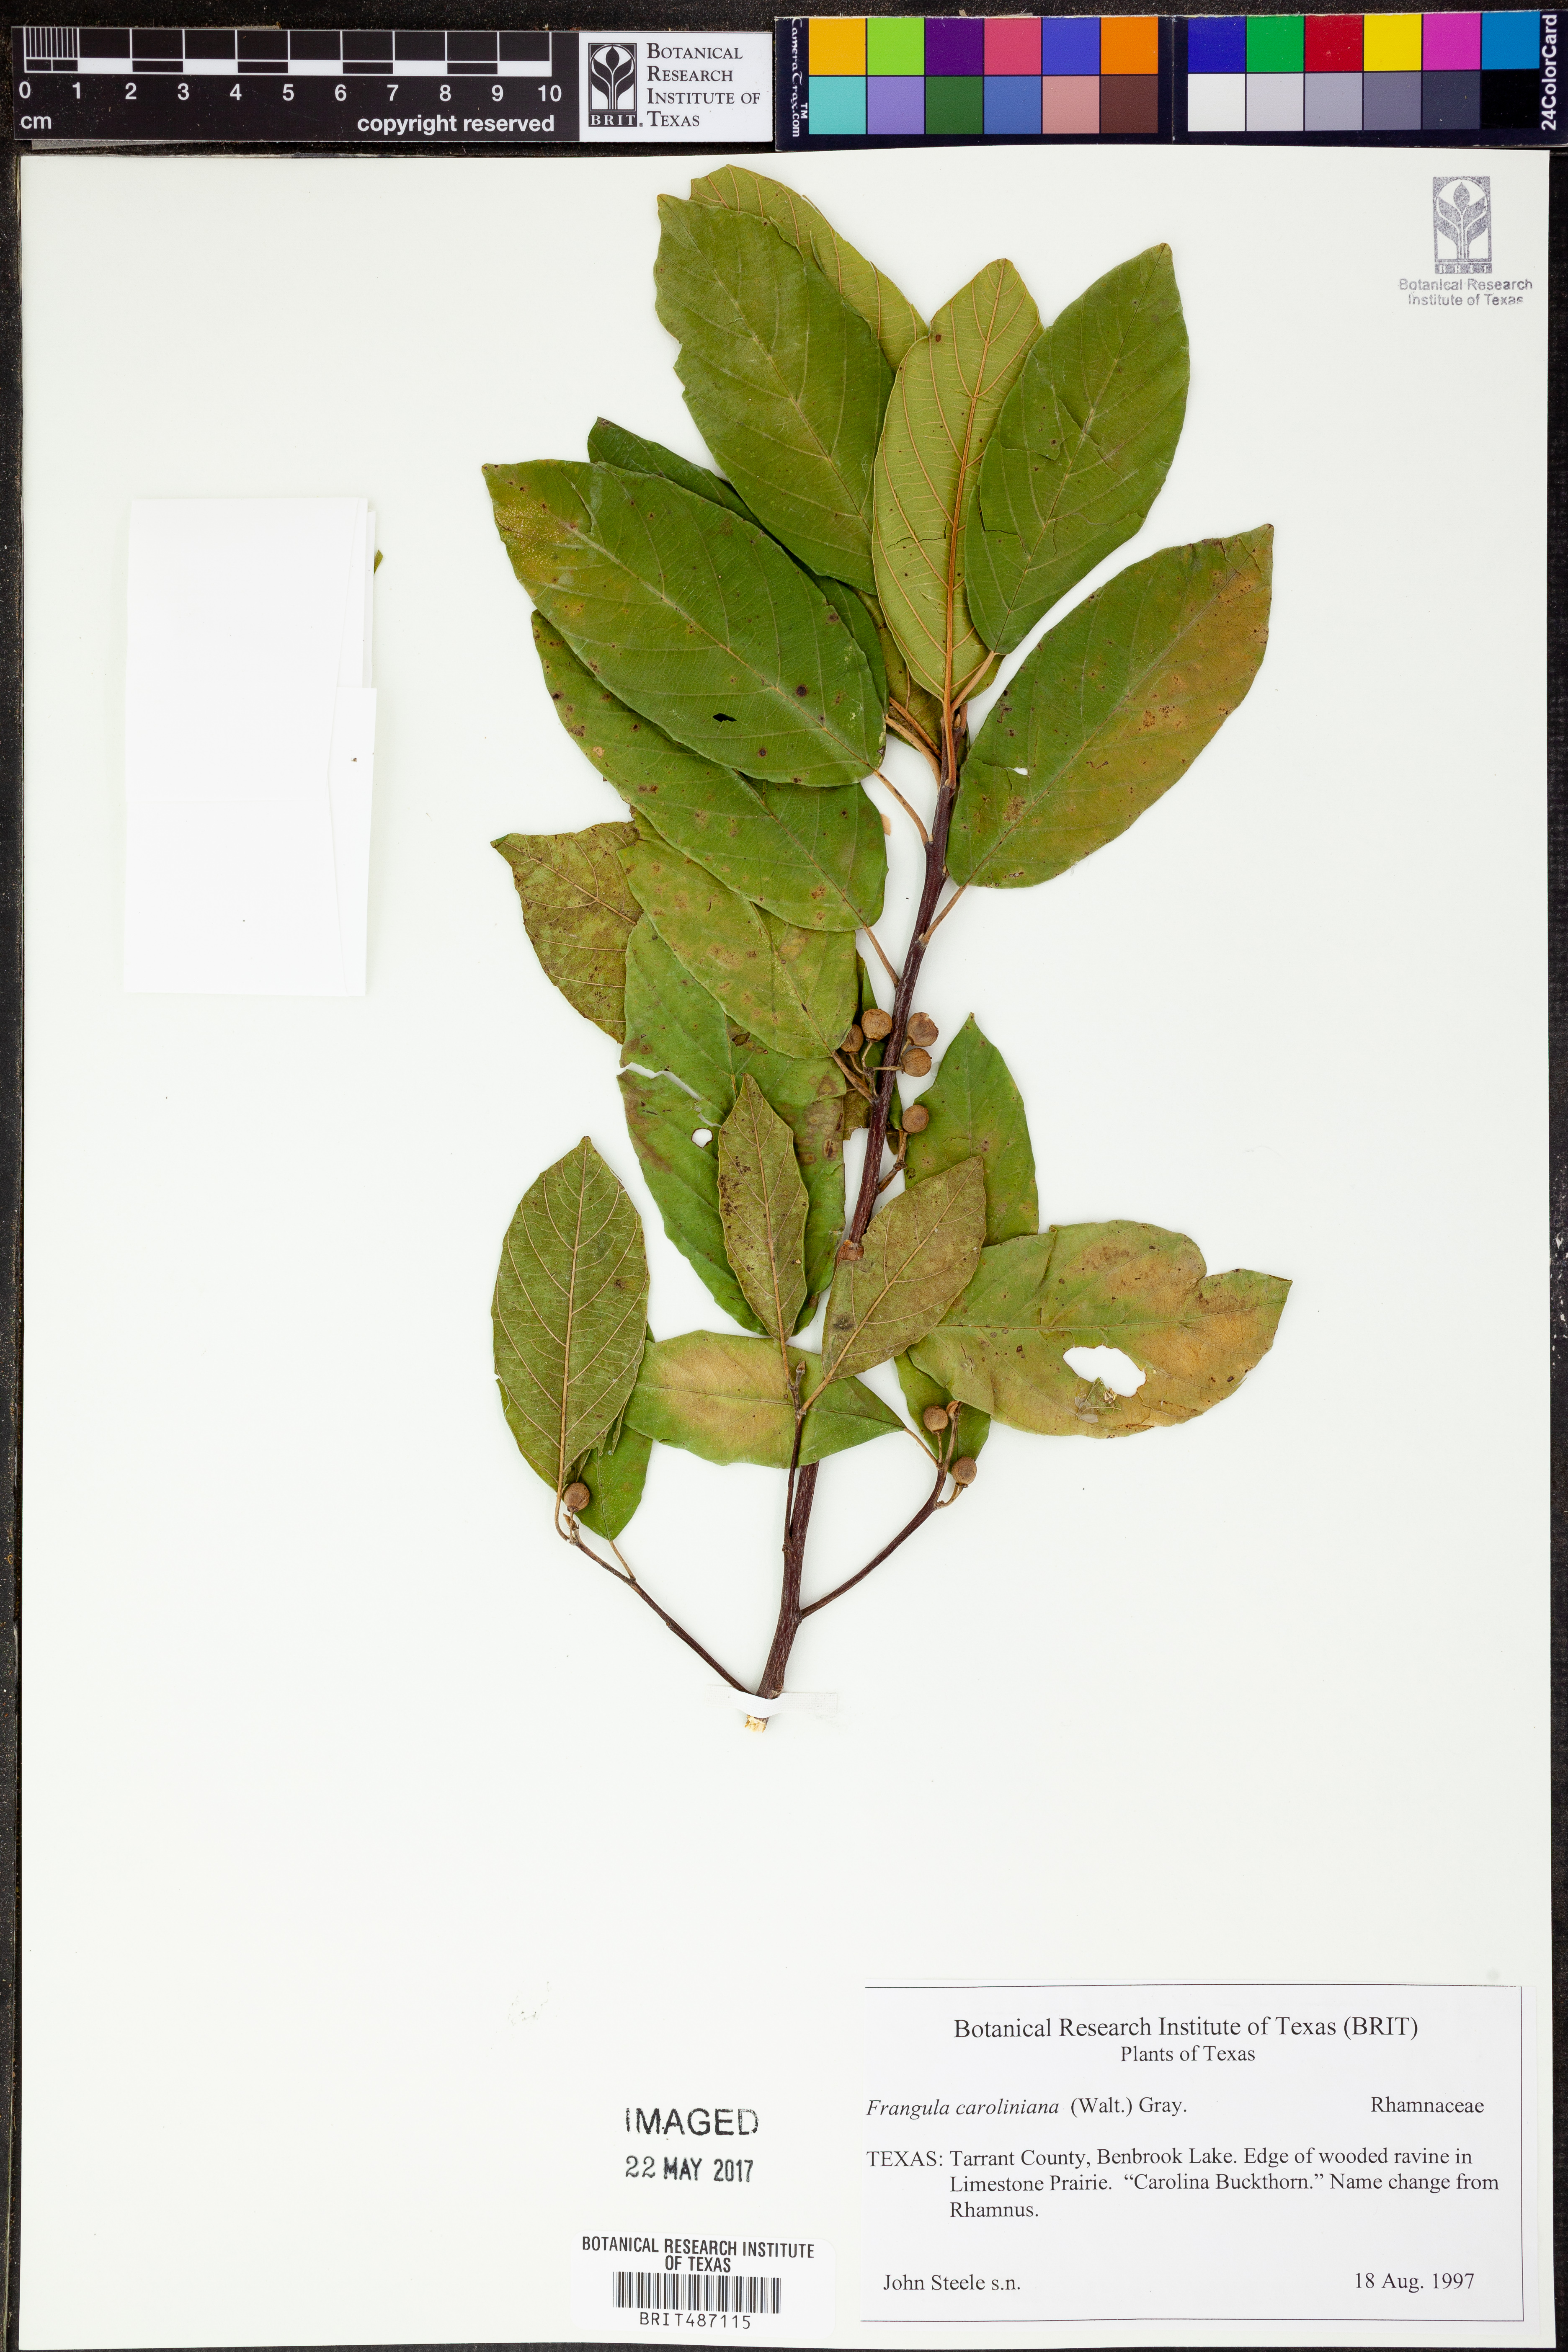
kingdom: Plantae
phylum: Tracheophyta
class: Magnoliopsida
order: Rosales
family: Rhamnaceae
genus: Frangula
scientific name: Frangula caroliniana
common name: Carolina buckthorn
